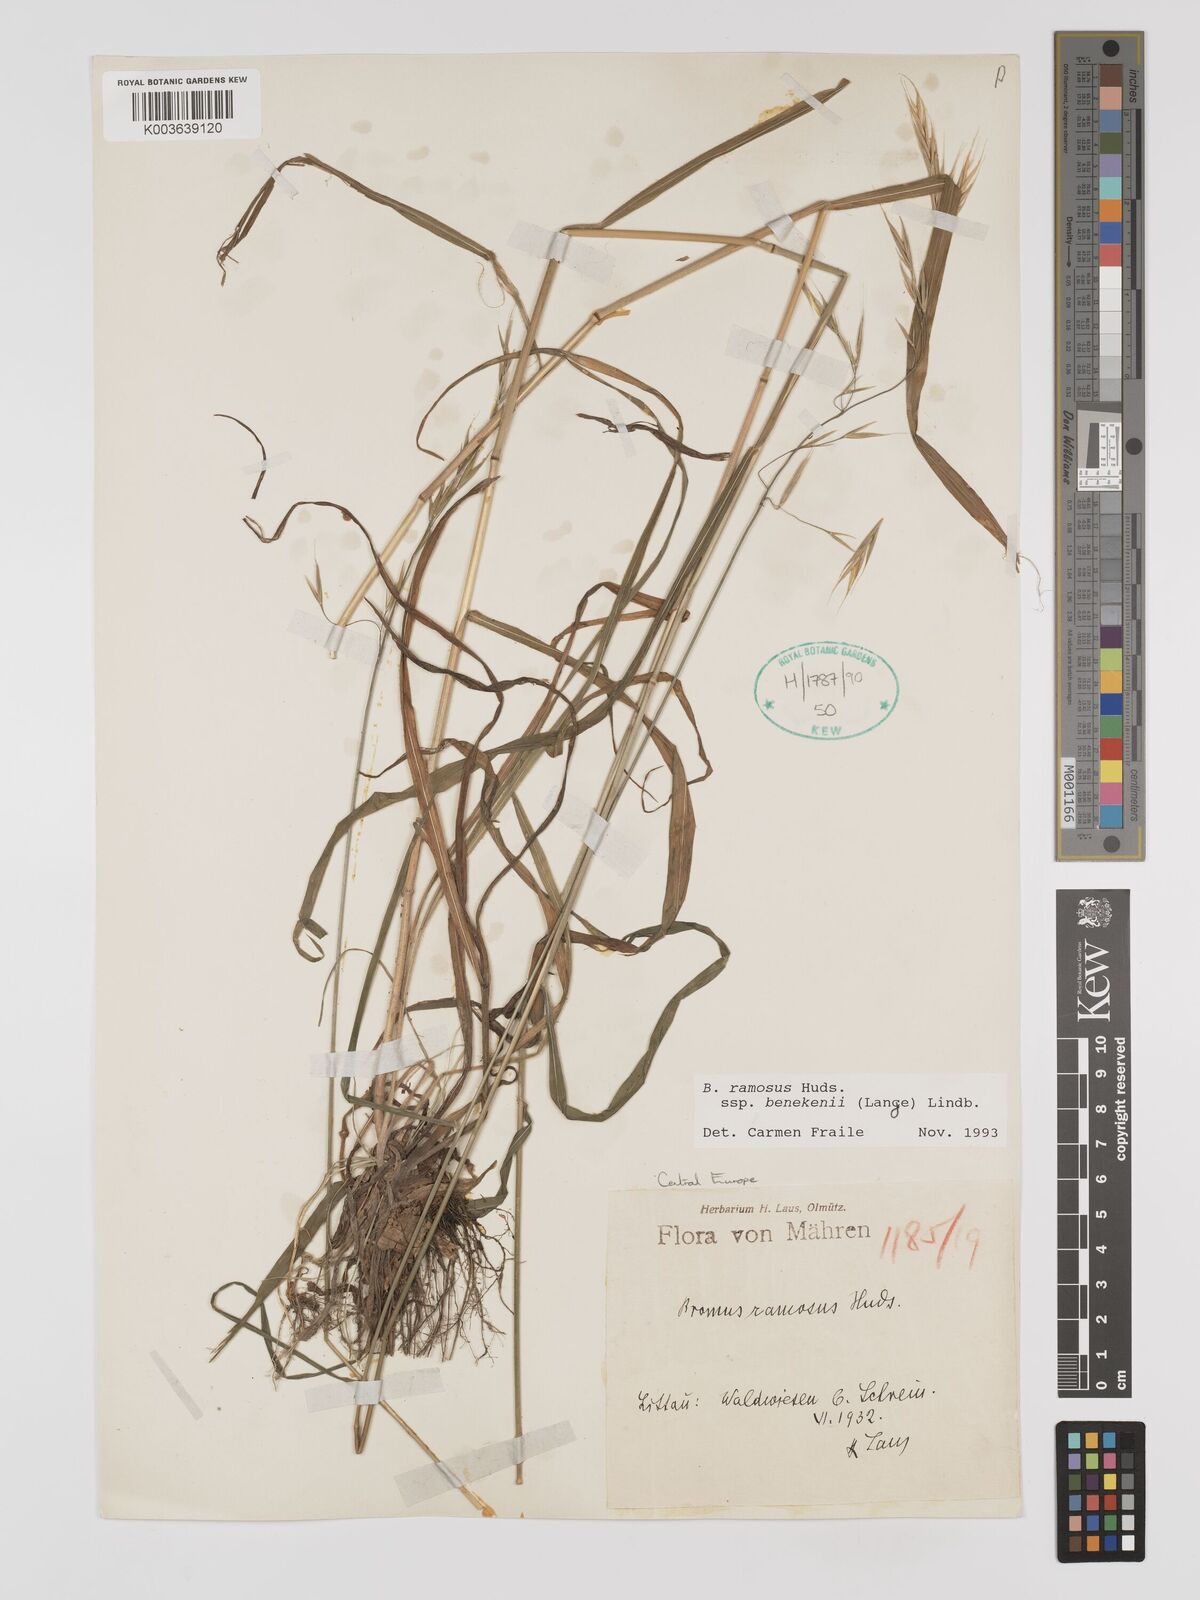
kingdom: Plantae
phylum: Tracheophyta
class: Liliopsida
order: Poales
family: Poaceae
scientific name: Poaceae
